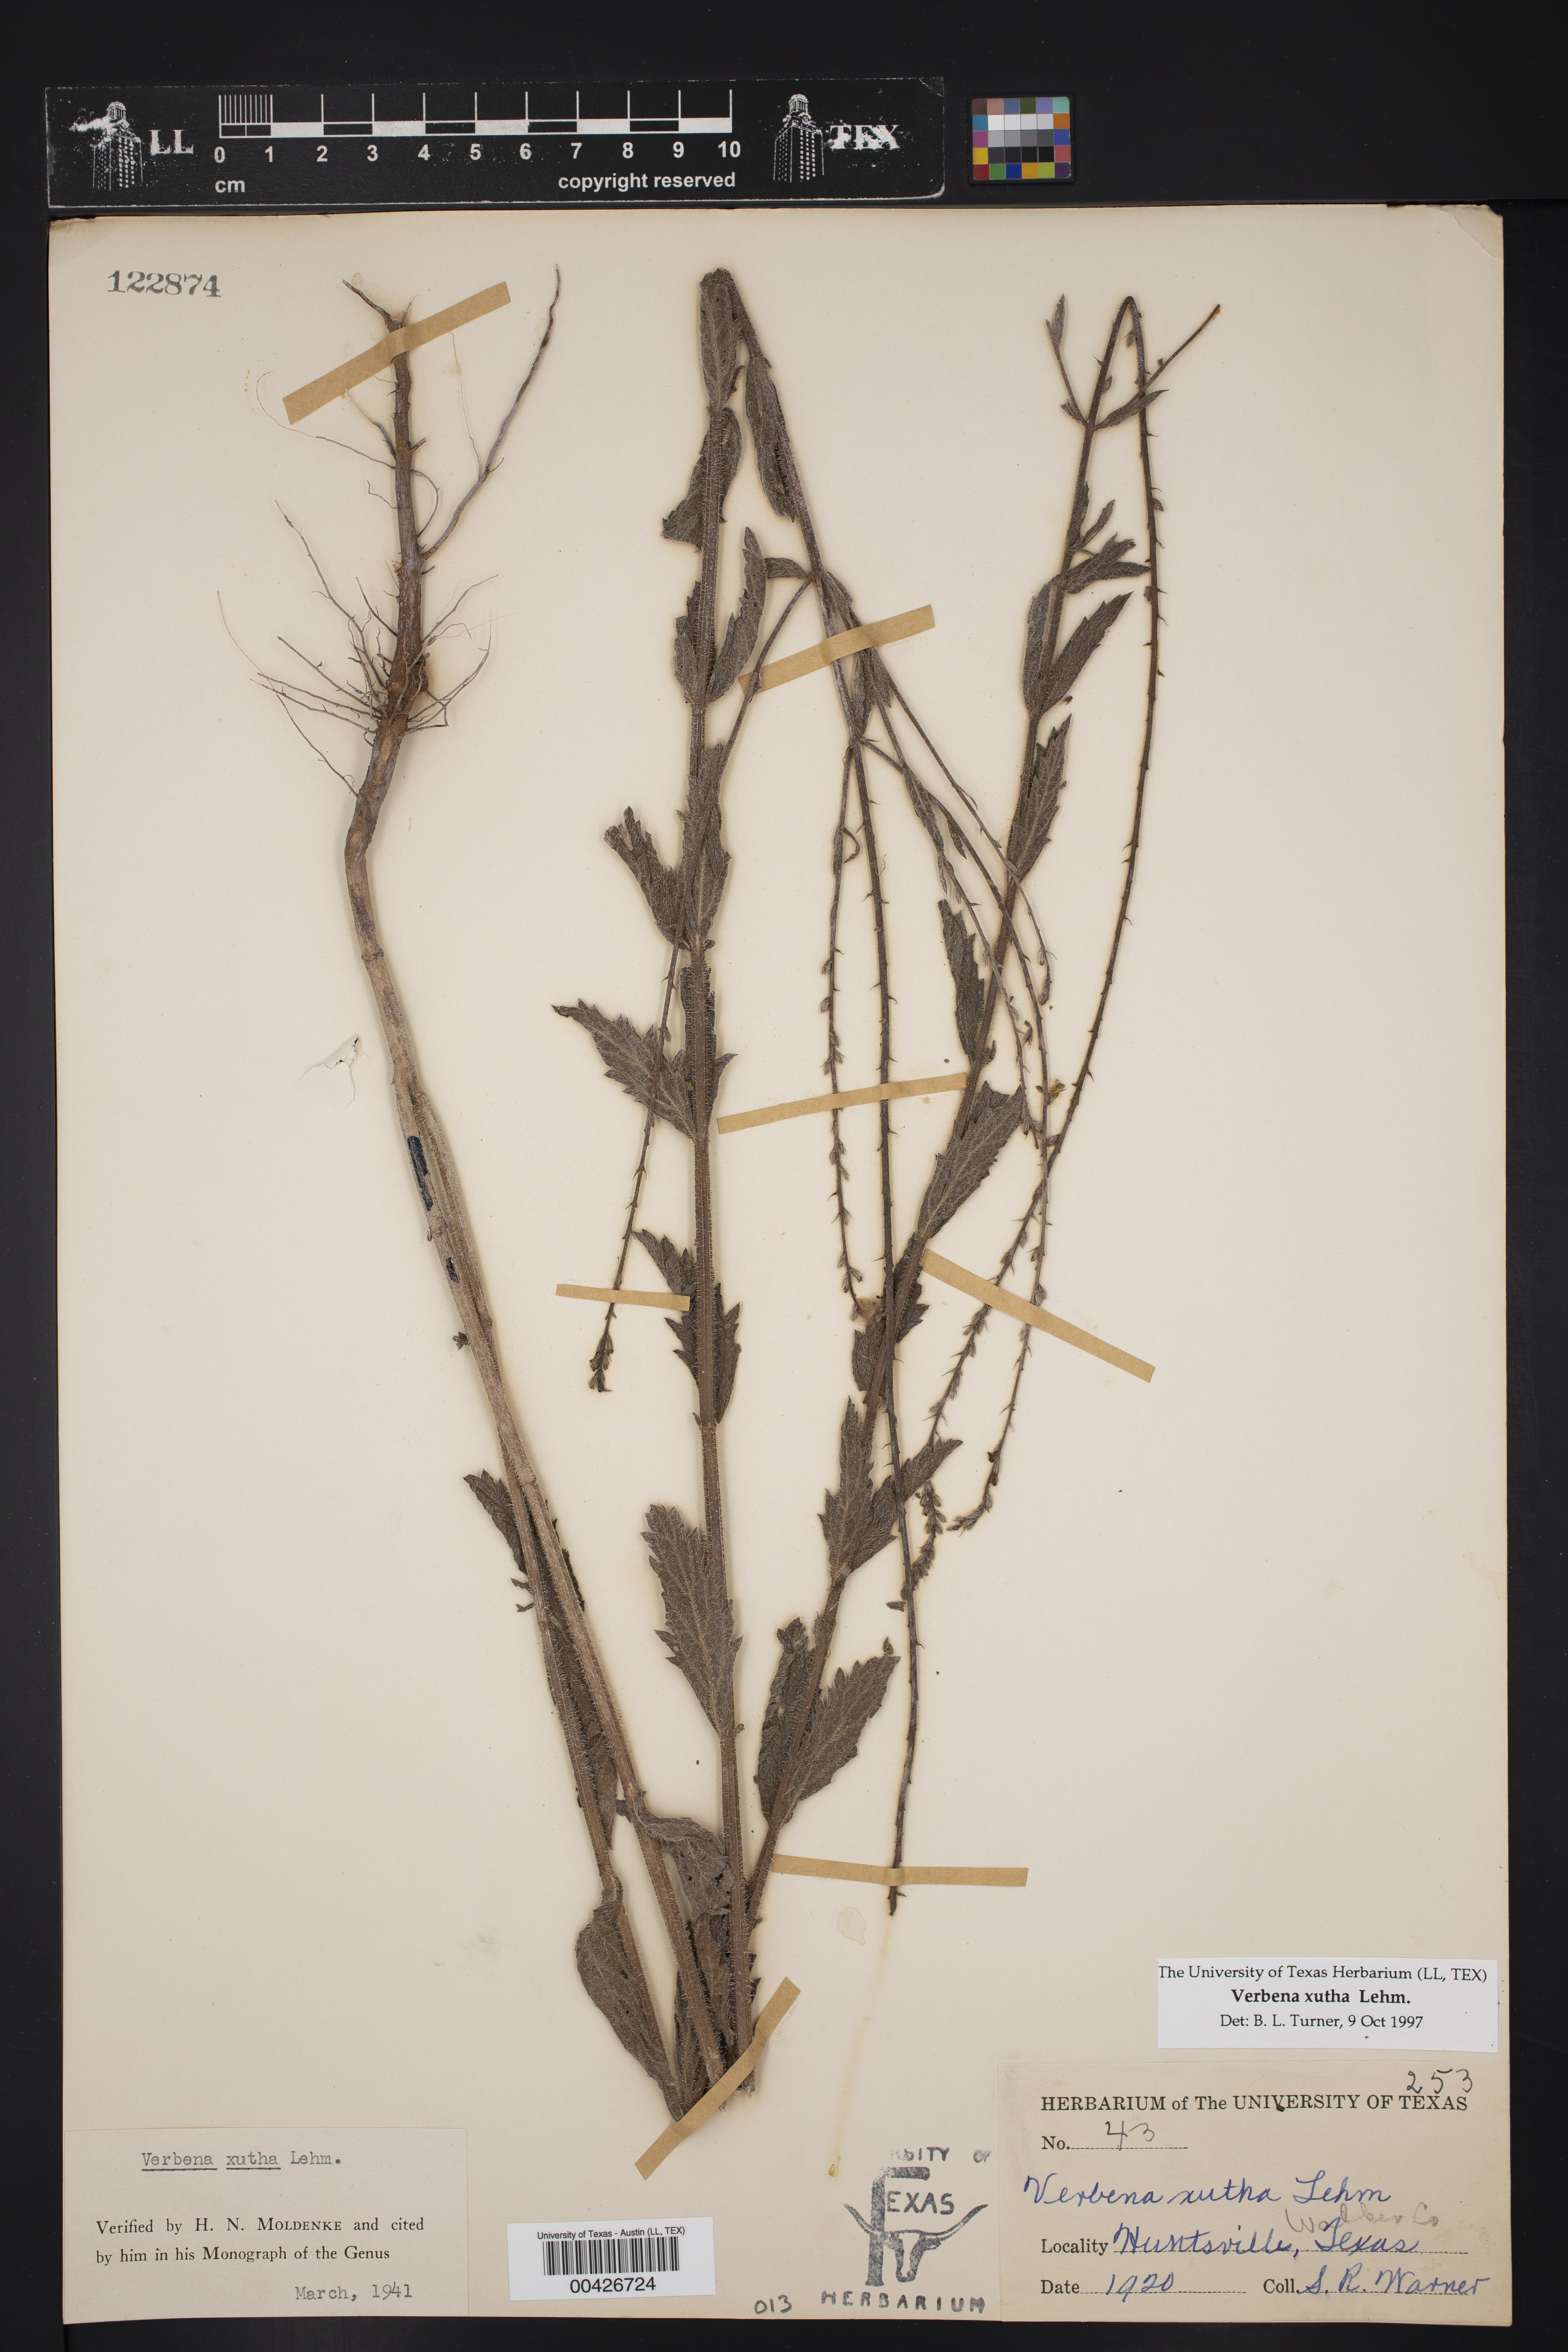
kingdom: Plantae
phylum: Tracheophyta
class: Magnoliopsida
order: Lamiales
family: Verbenaceae
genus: Verbena
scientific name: Verbena xutha
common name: Gulf vervain
